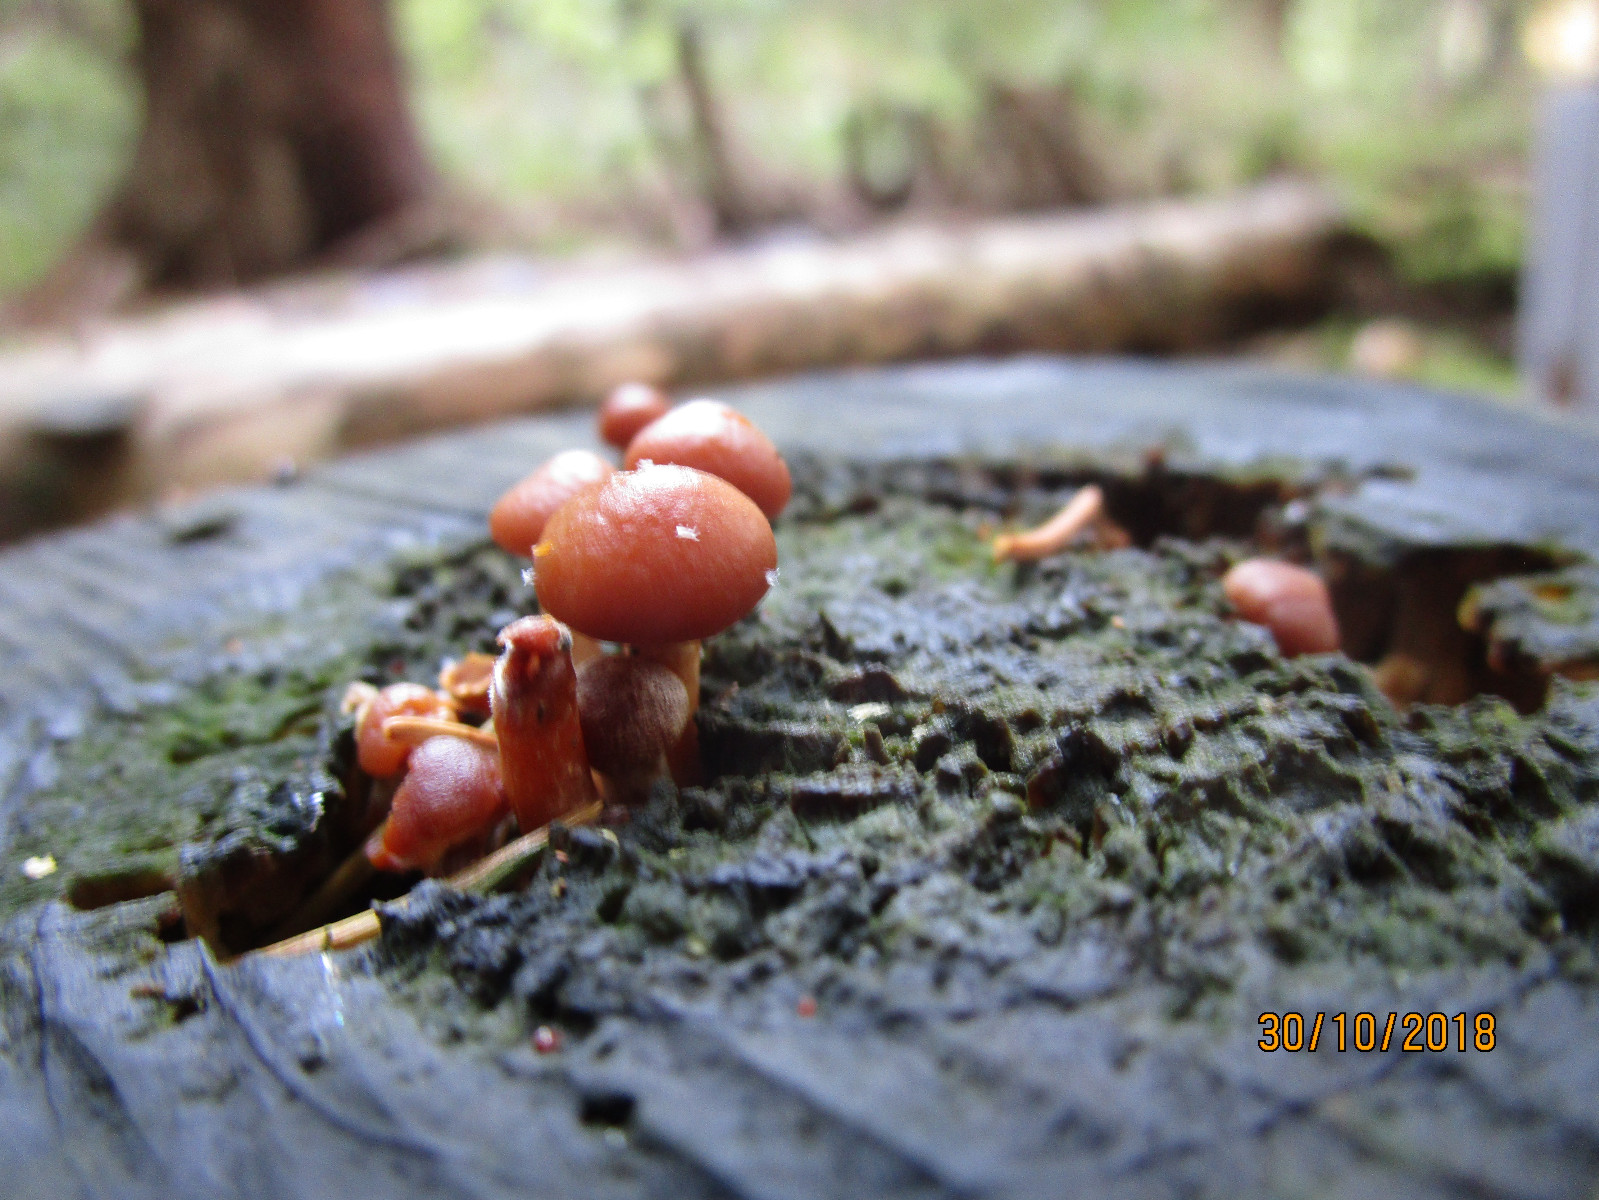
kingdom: Fungi
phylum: Basidiomycota
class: Agaricomycetes
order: Agaricales
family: Hymenogastraceae
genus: Galerina
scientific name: Galerina marginata
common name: randbæltet hjelmhat
